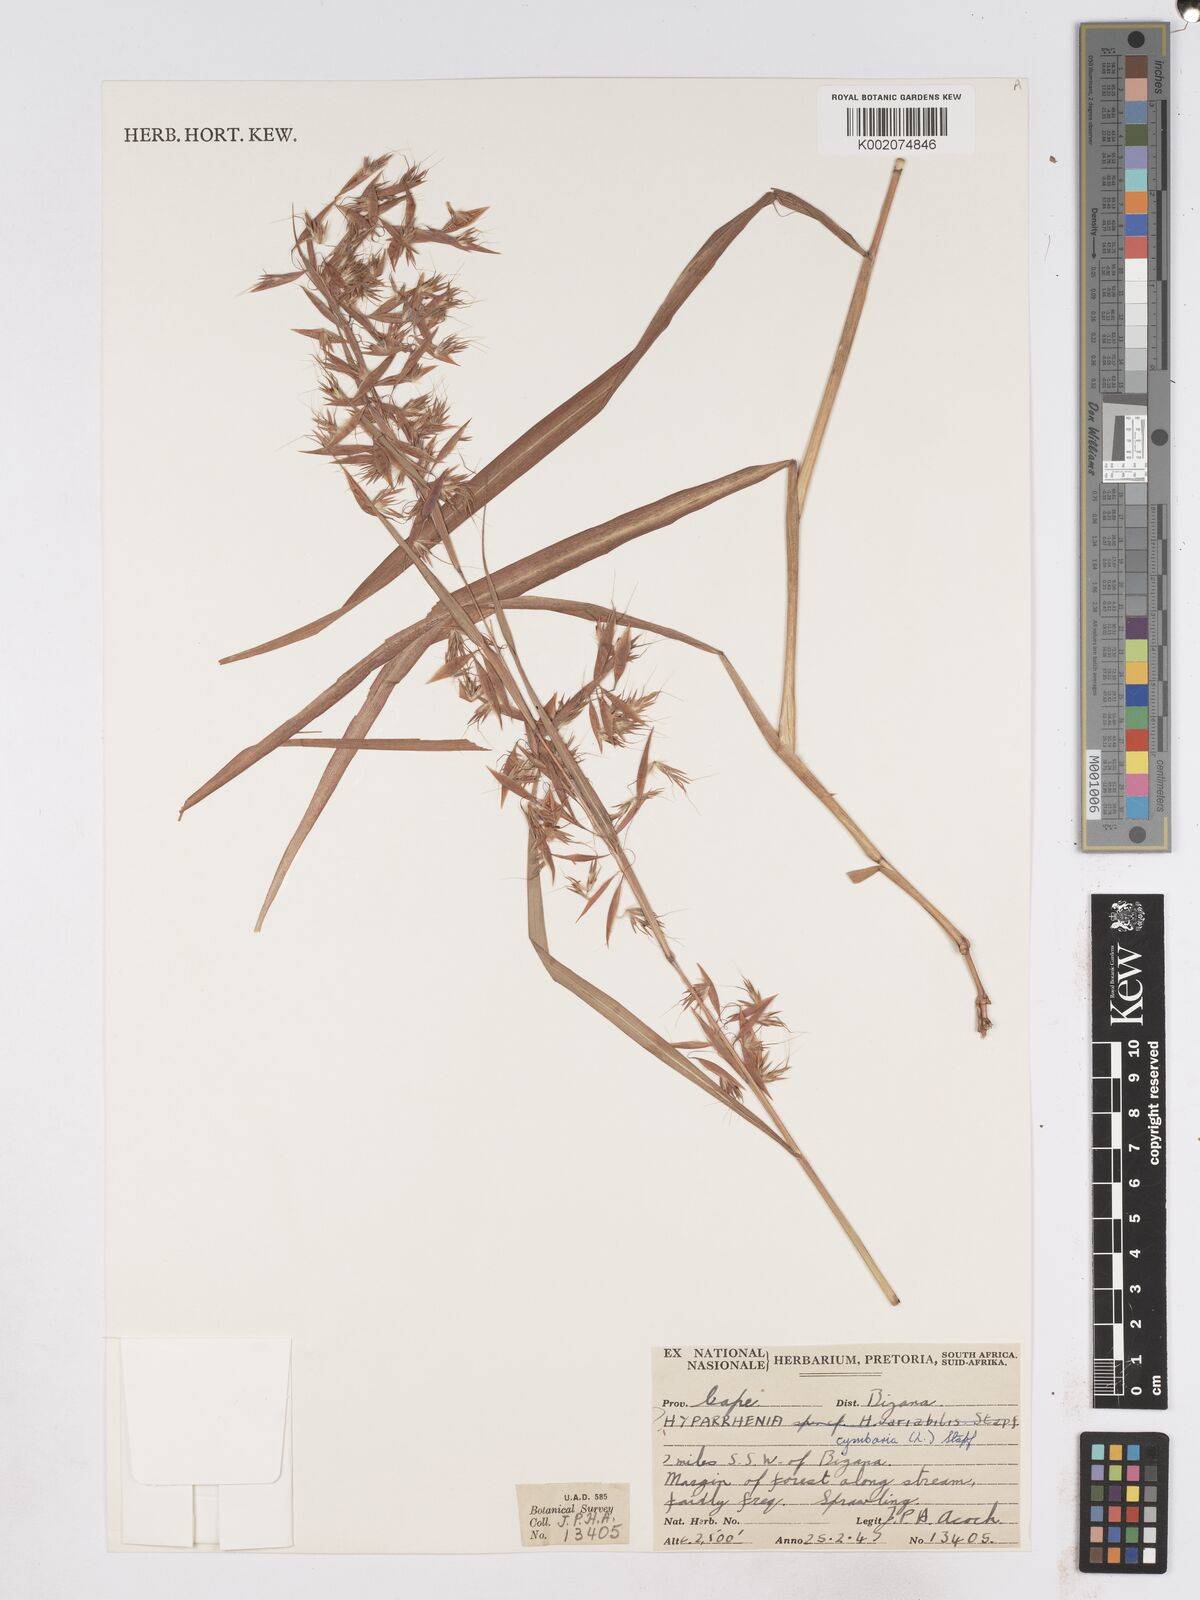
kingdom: Plantae
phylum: Tracheophyta
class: Liliopsida
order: Poales
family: Poaceae
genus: Hyparrhenia
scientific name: Hyparrhenia cymbaria
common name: Boat thatching grass
